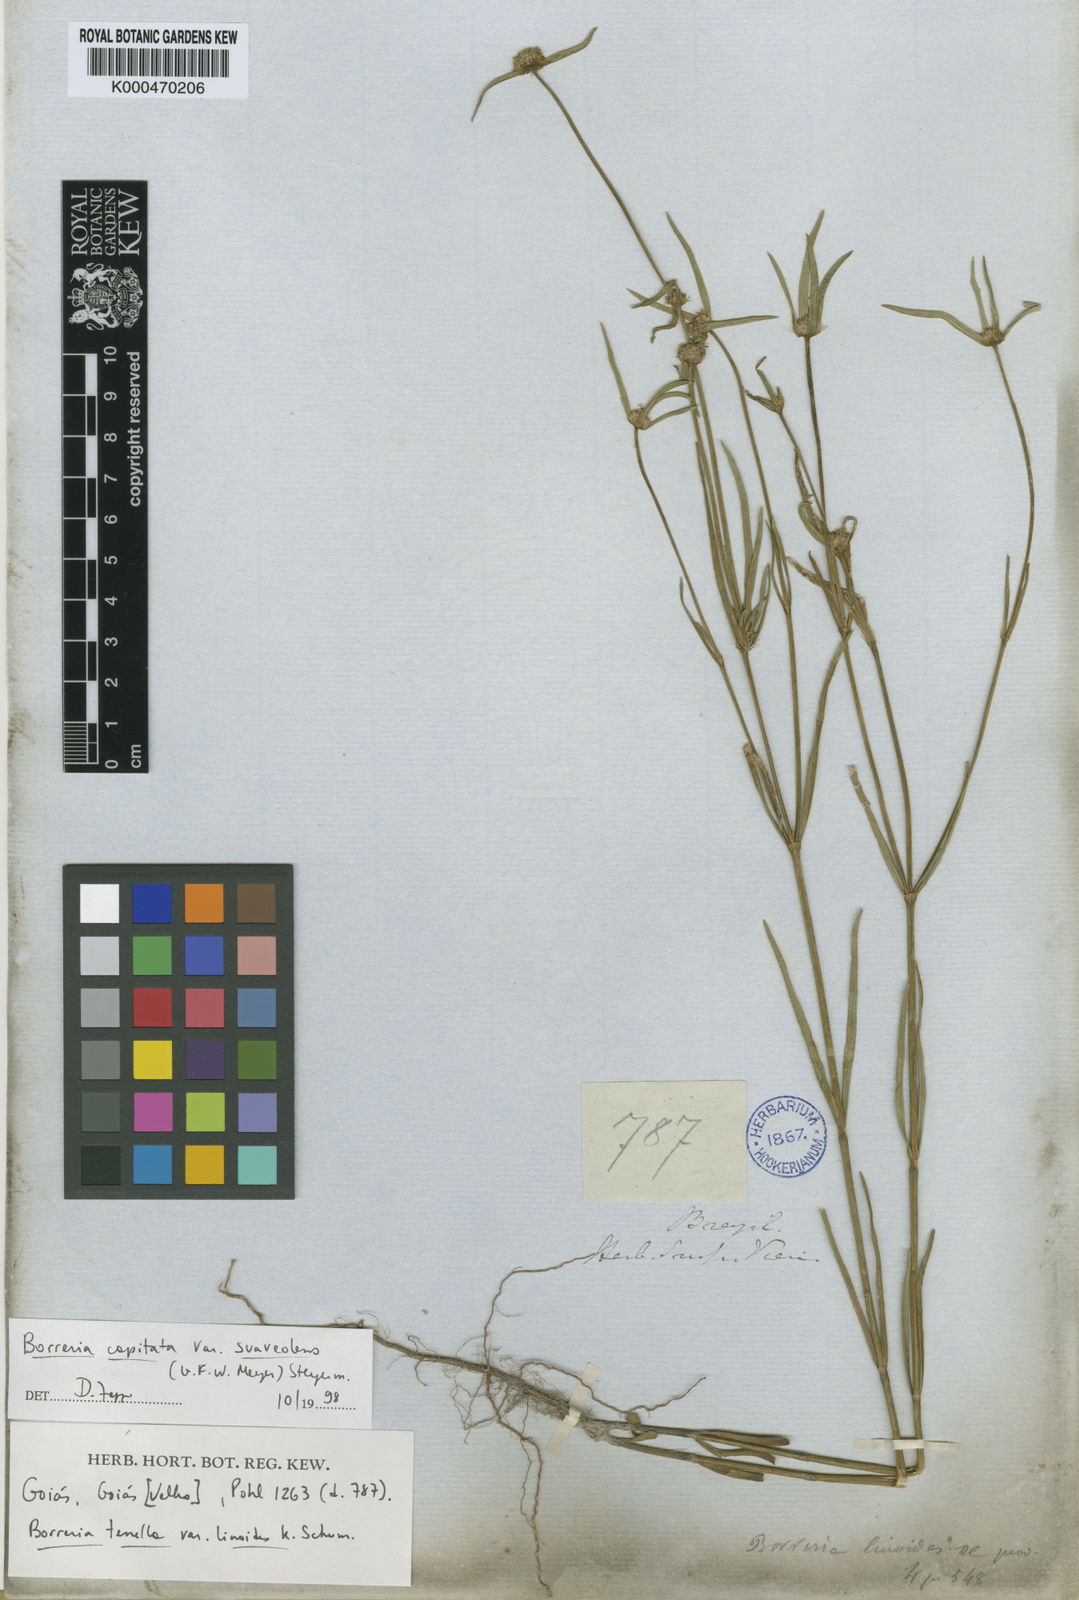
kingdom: Plantae
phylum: Tracheophyta
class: Magnoliopsida
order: Gentianales
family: Rubiaceae
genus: Spermacoce
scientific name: Spermacoce
